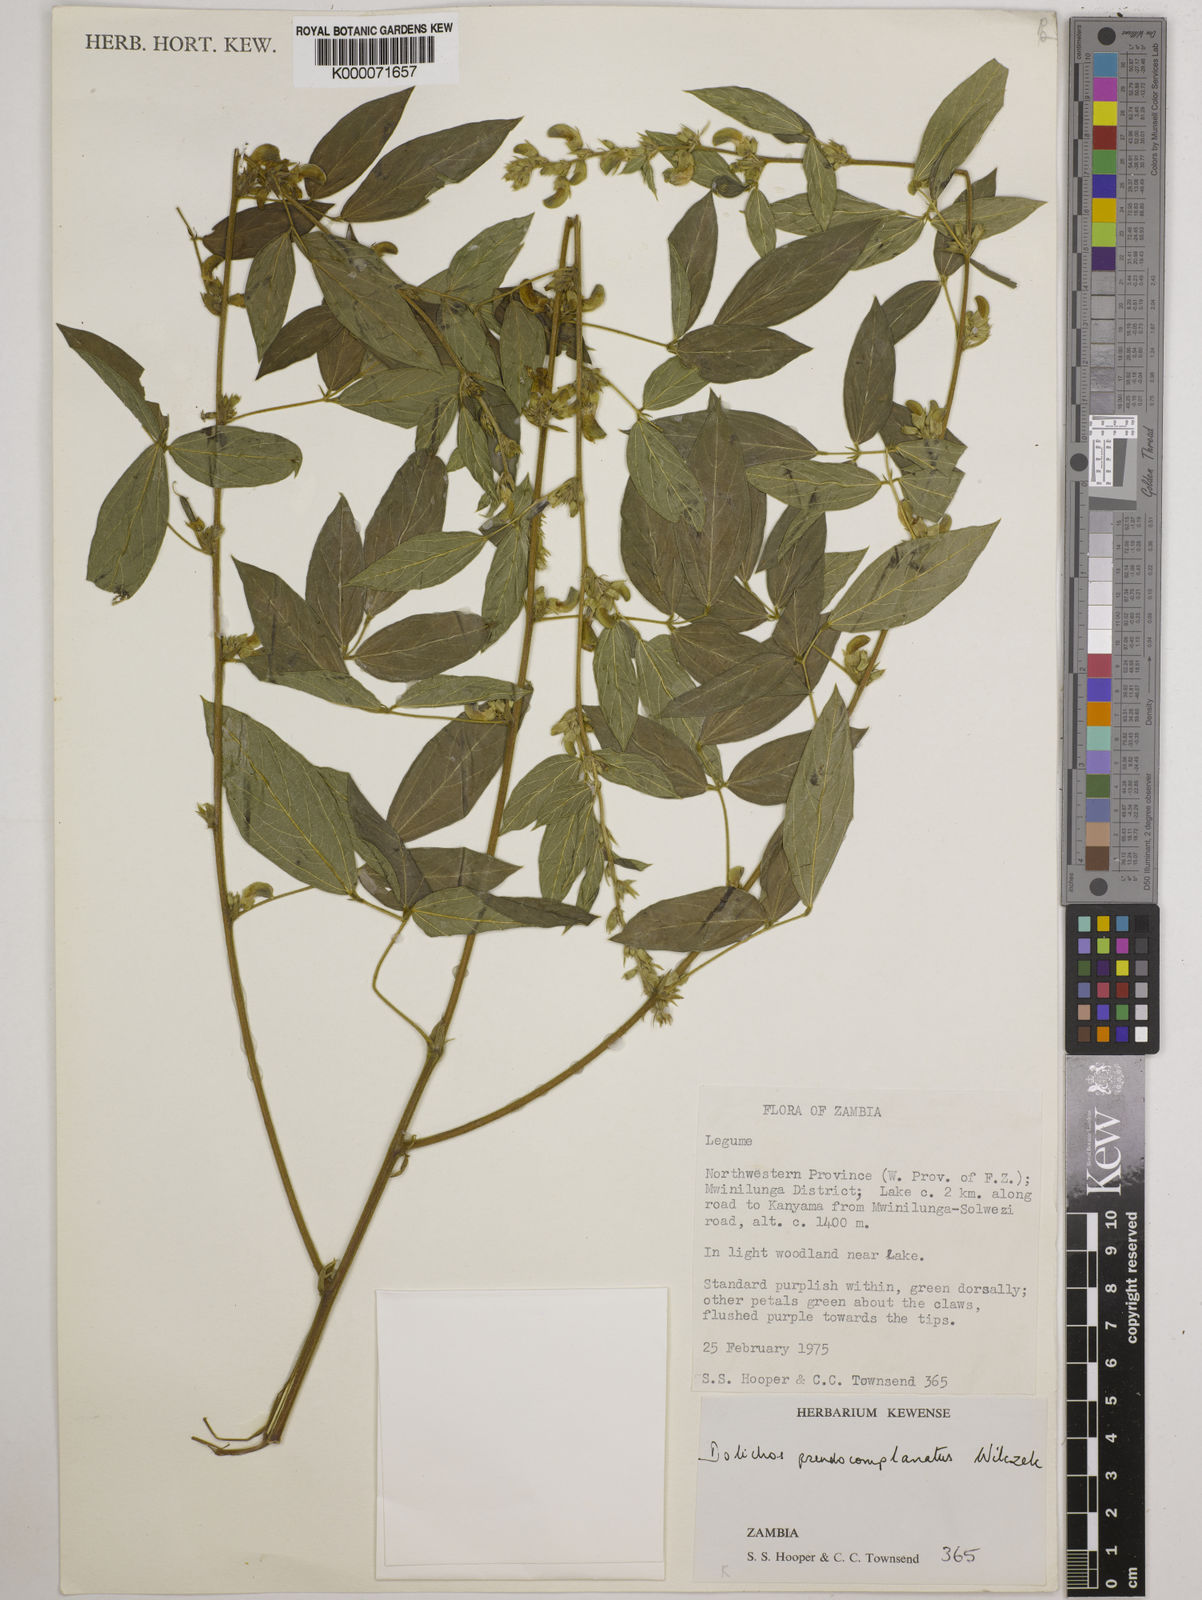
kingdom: Plantae
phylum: Tracheophyta
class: Magnoliopsida
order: Fabales
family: Fabaceae
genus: Dolichos
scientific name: Dolichos
